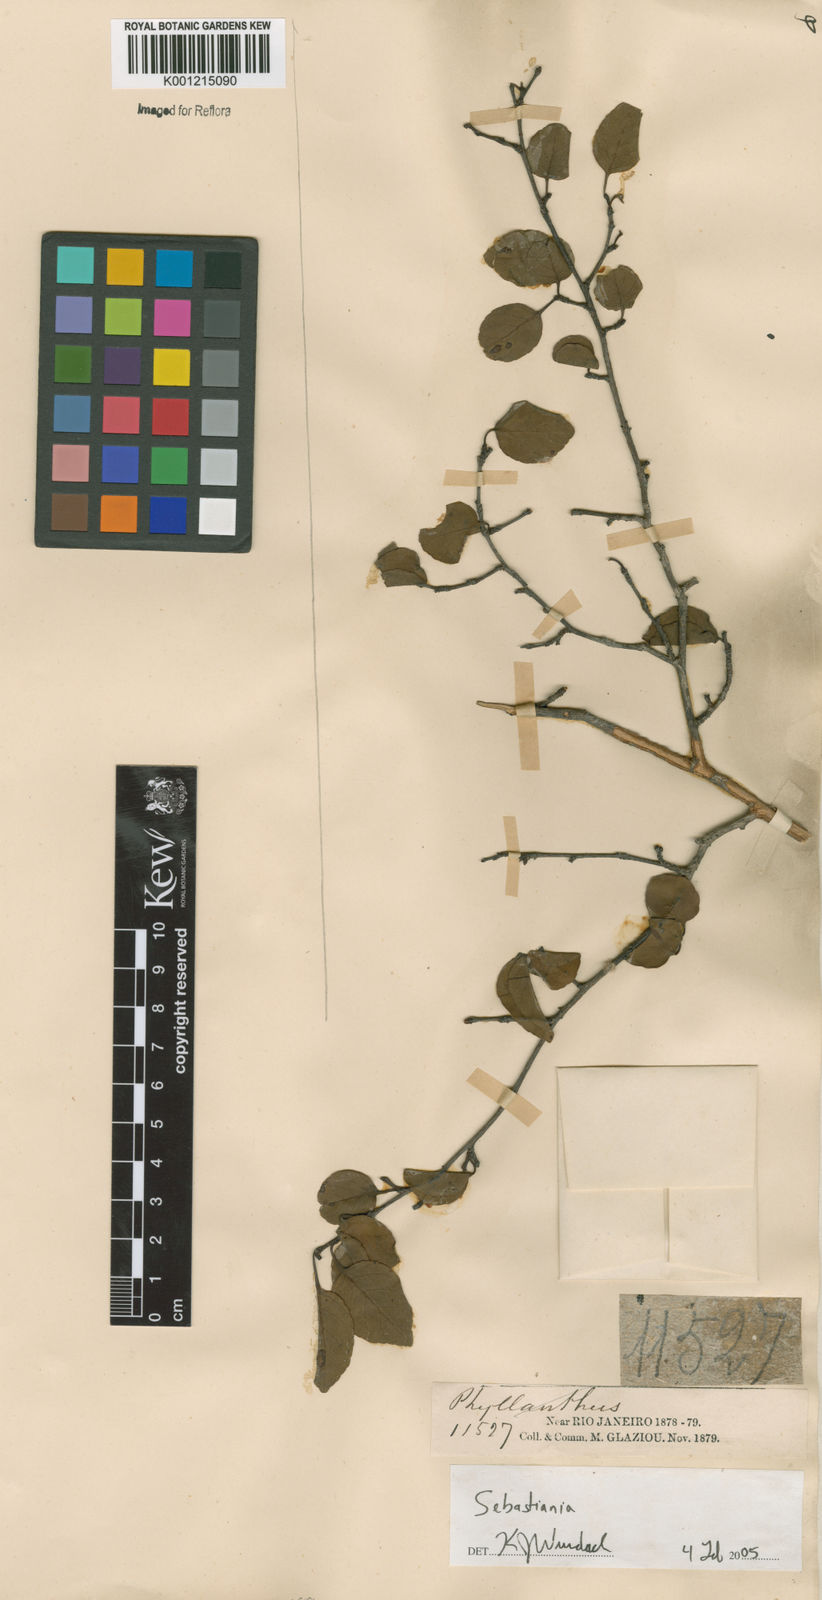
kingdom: Plantae
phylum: Tracheophyta
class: Magnoliopsida
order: Malpighiales
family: Euphorbiaceae
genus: Sebastiania
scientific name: Sebastiania
